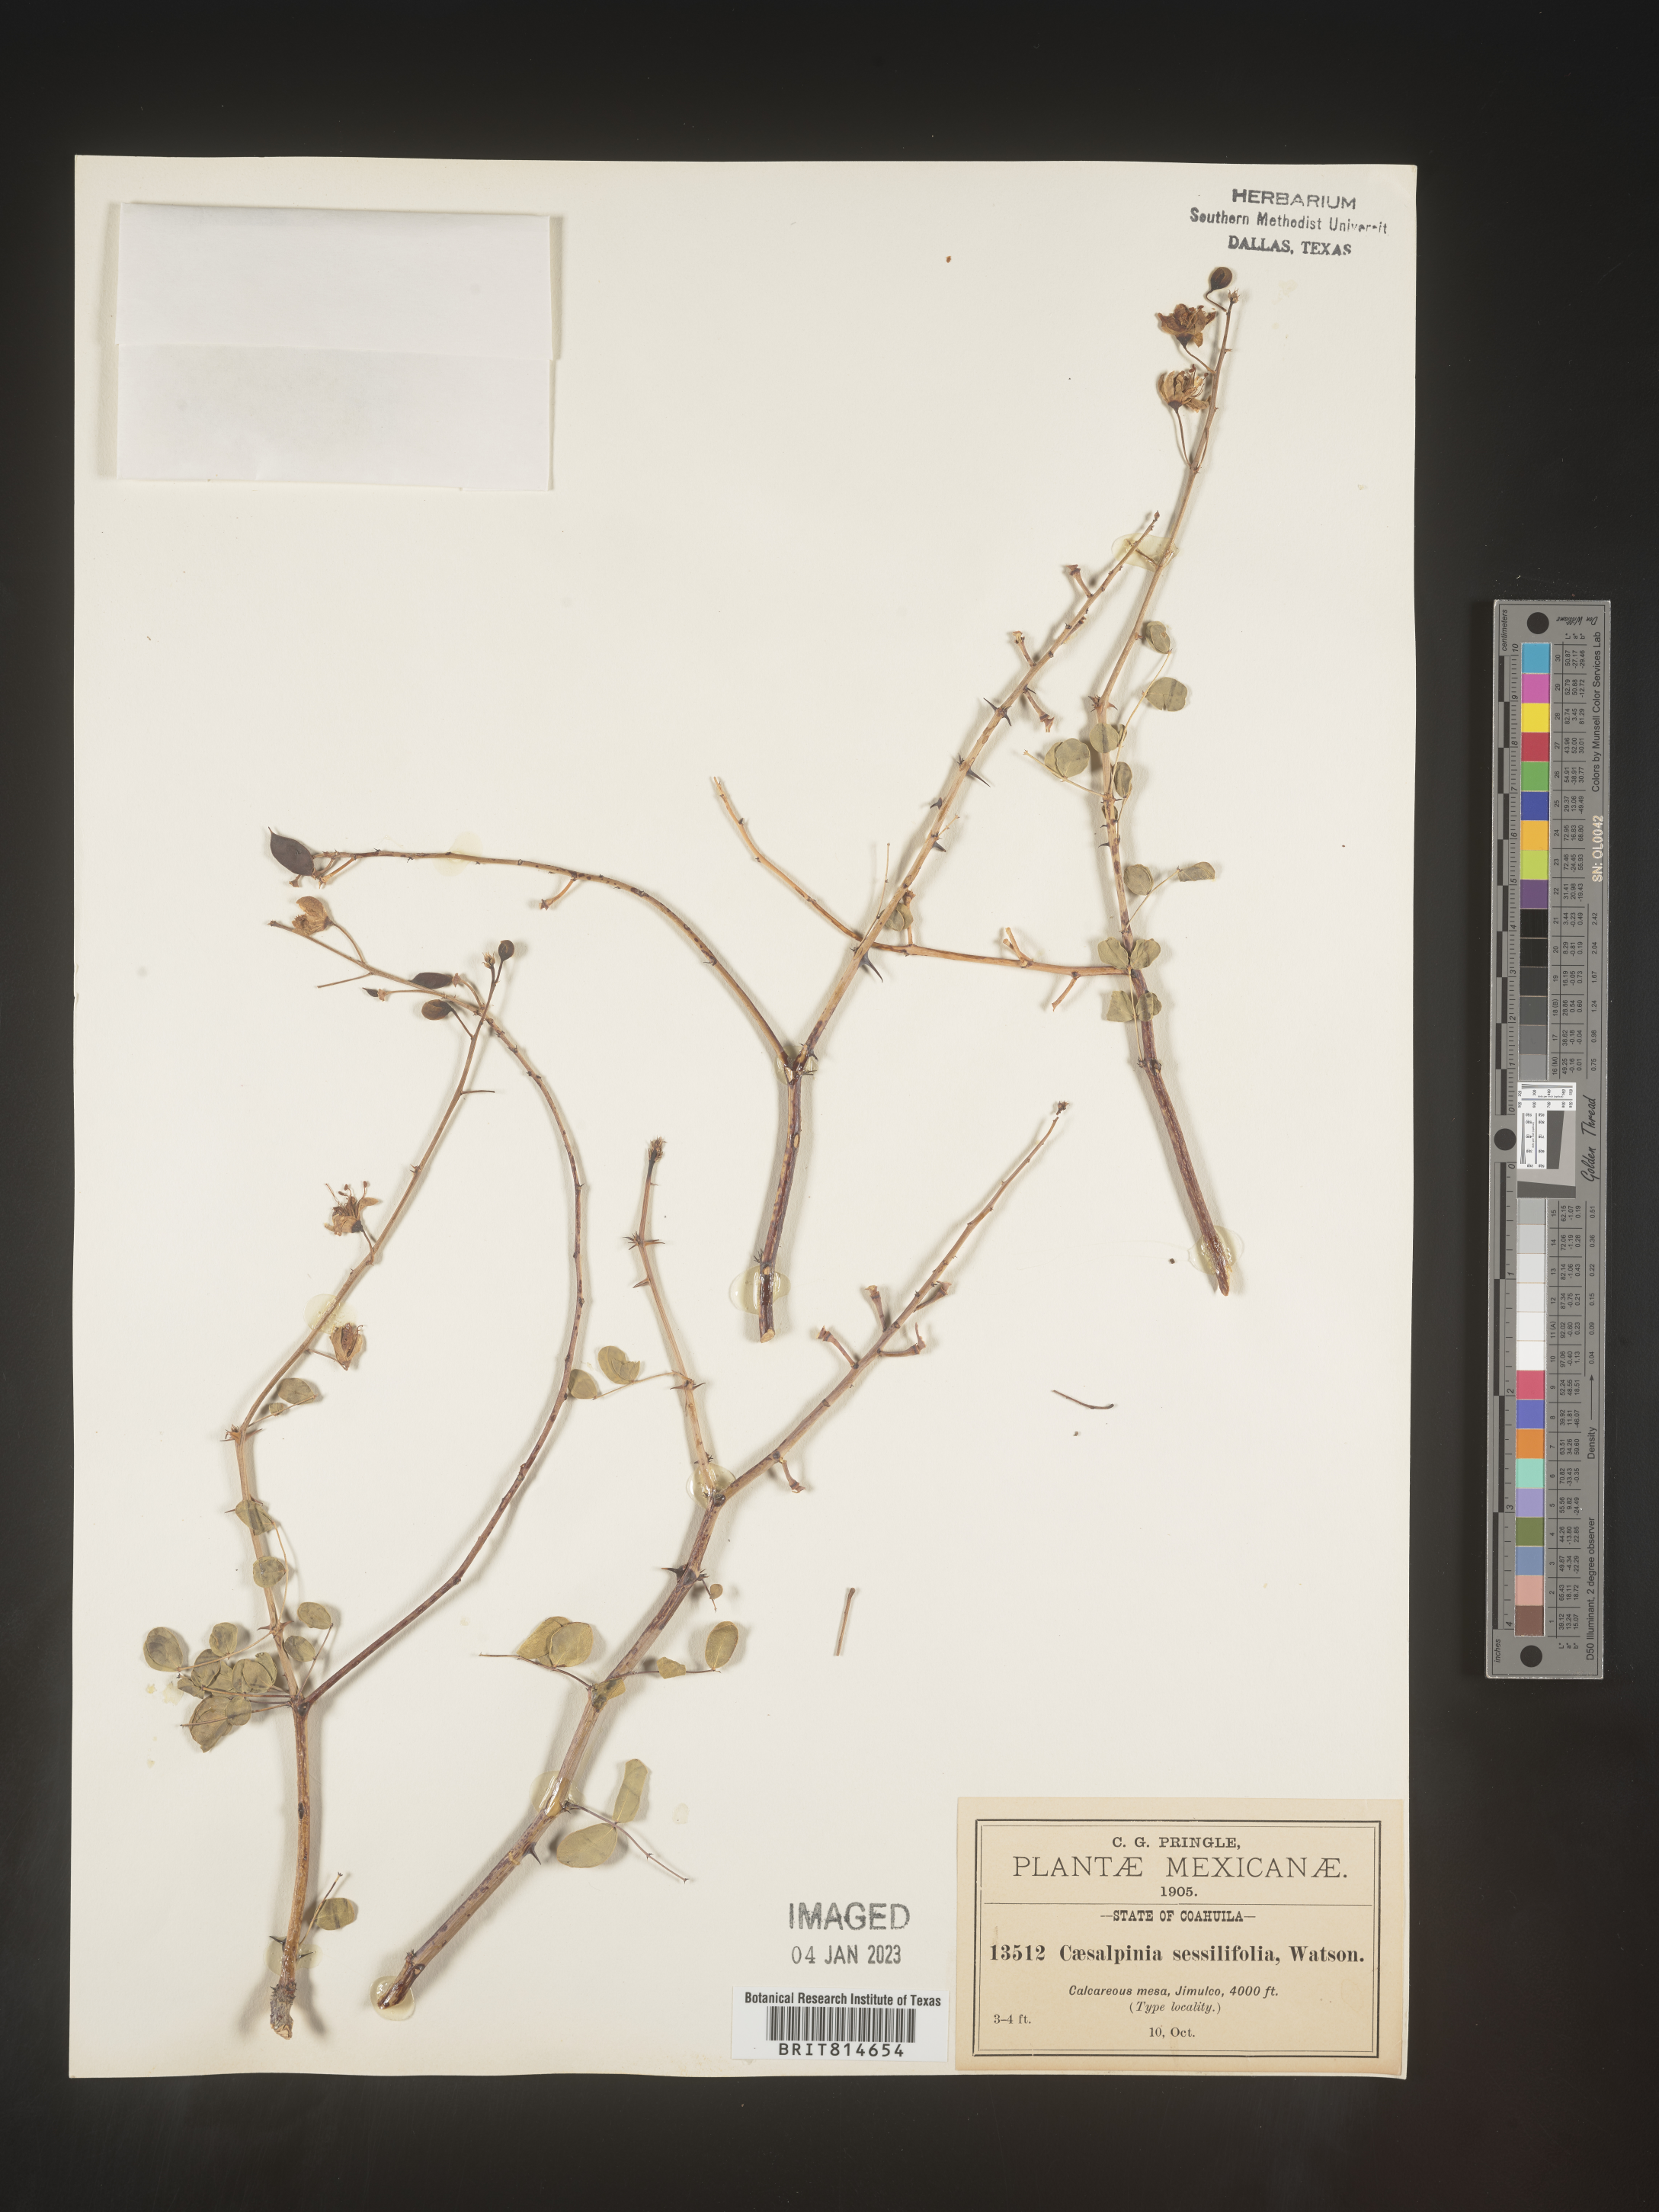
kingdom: Plantae
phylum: Tracheophyta
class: Magnoliopsida
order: Fabales
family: Fabaceae
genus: Caesalpinia
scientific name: Caesalpinia
